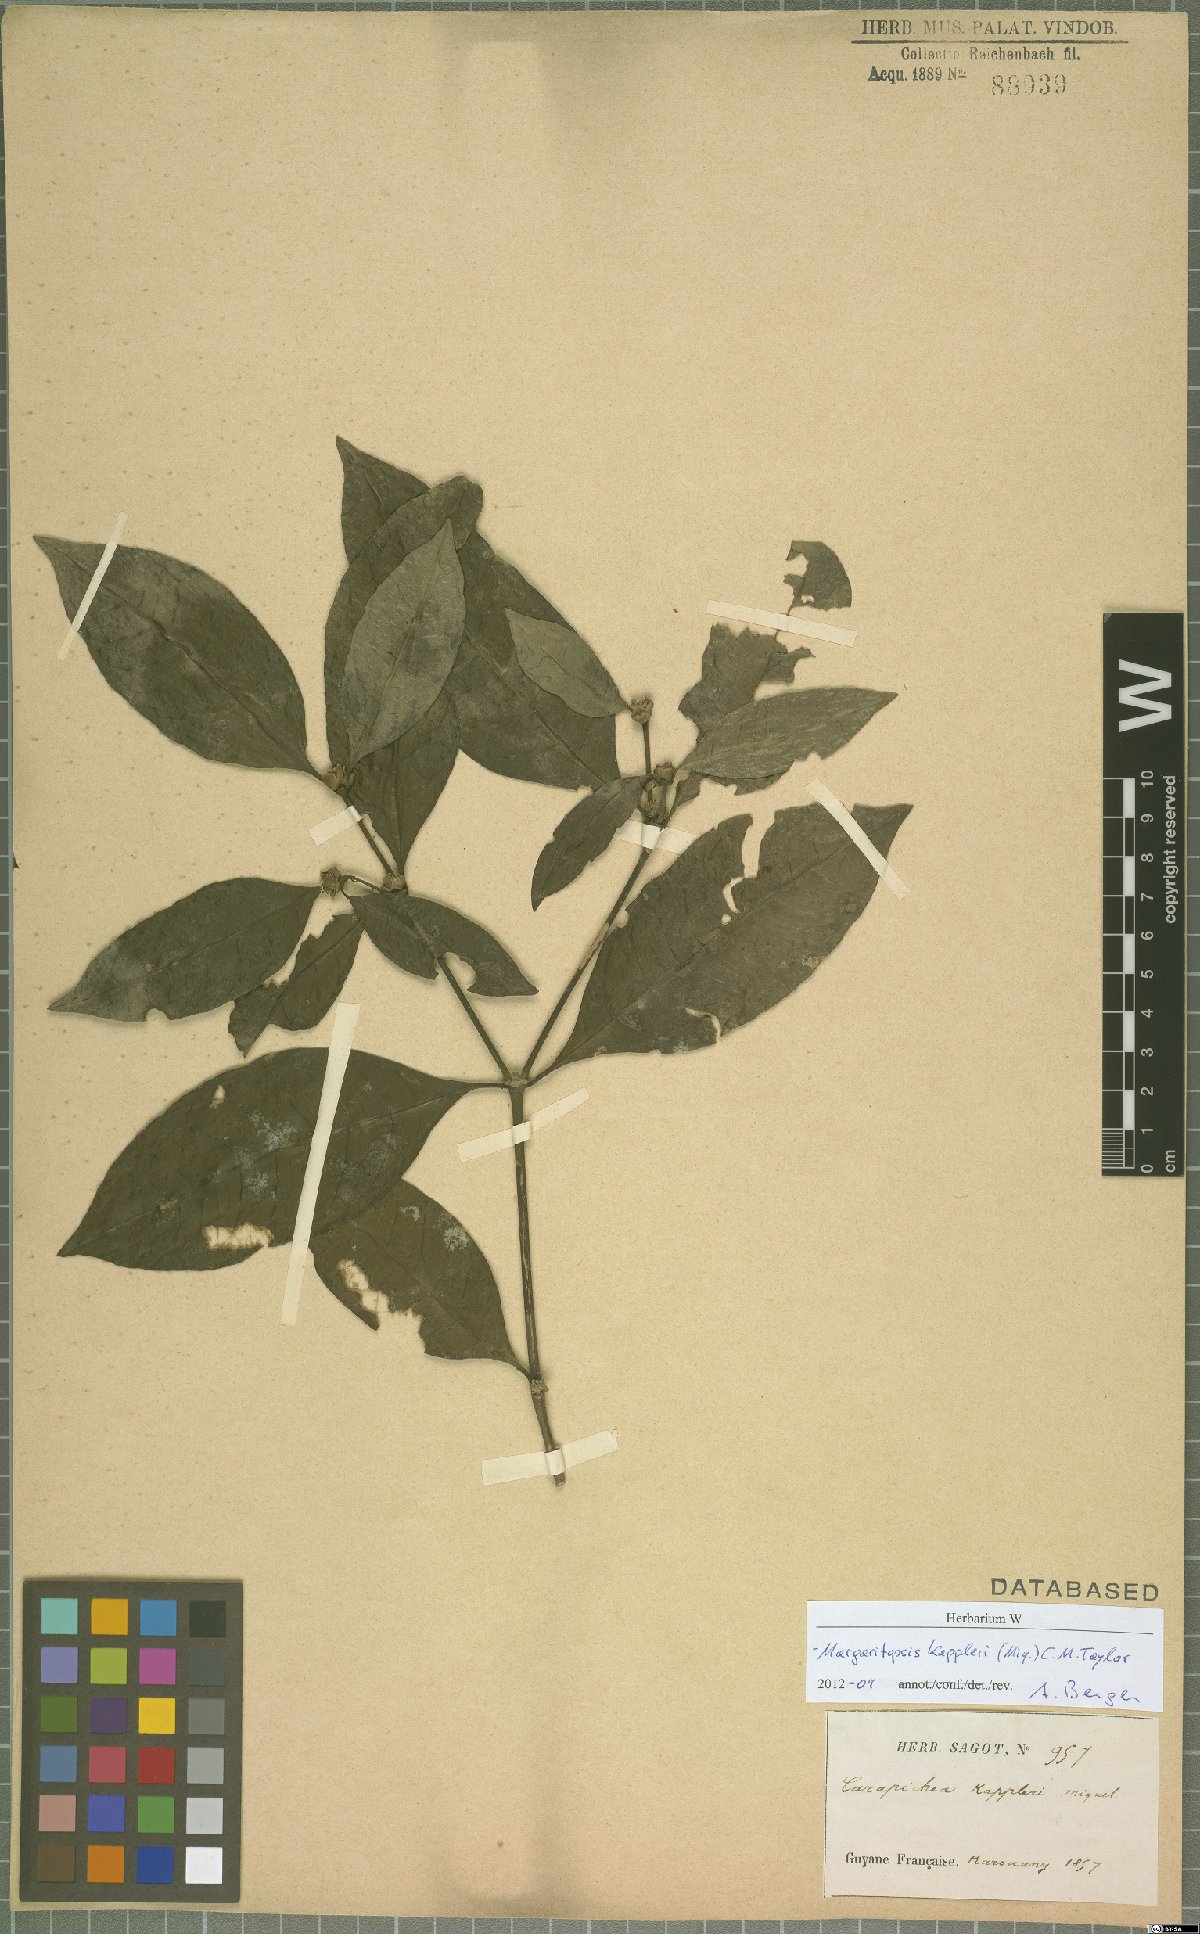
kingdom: Plantae
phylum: Tracheophyta
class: Magnoliopsida
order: Gentianales
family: Rubiaceae
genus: Eumachia
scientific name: Eumachia kappleri
